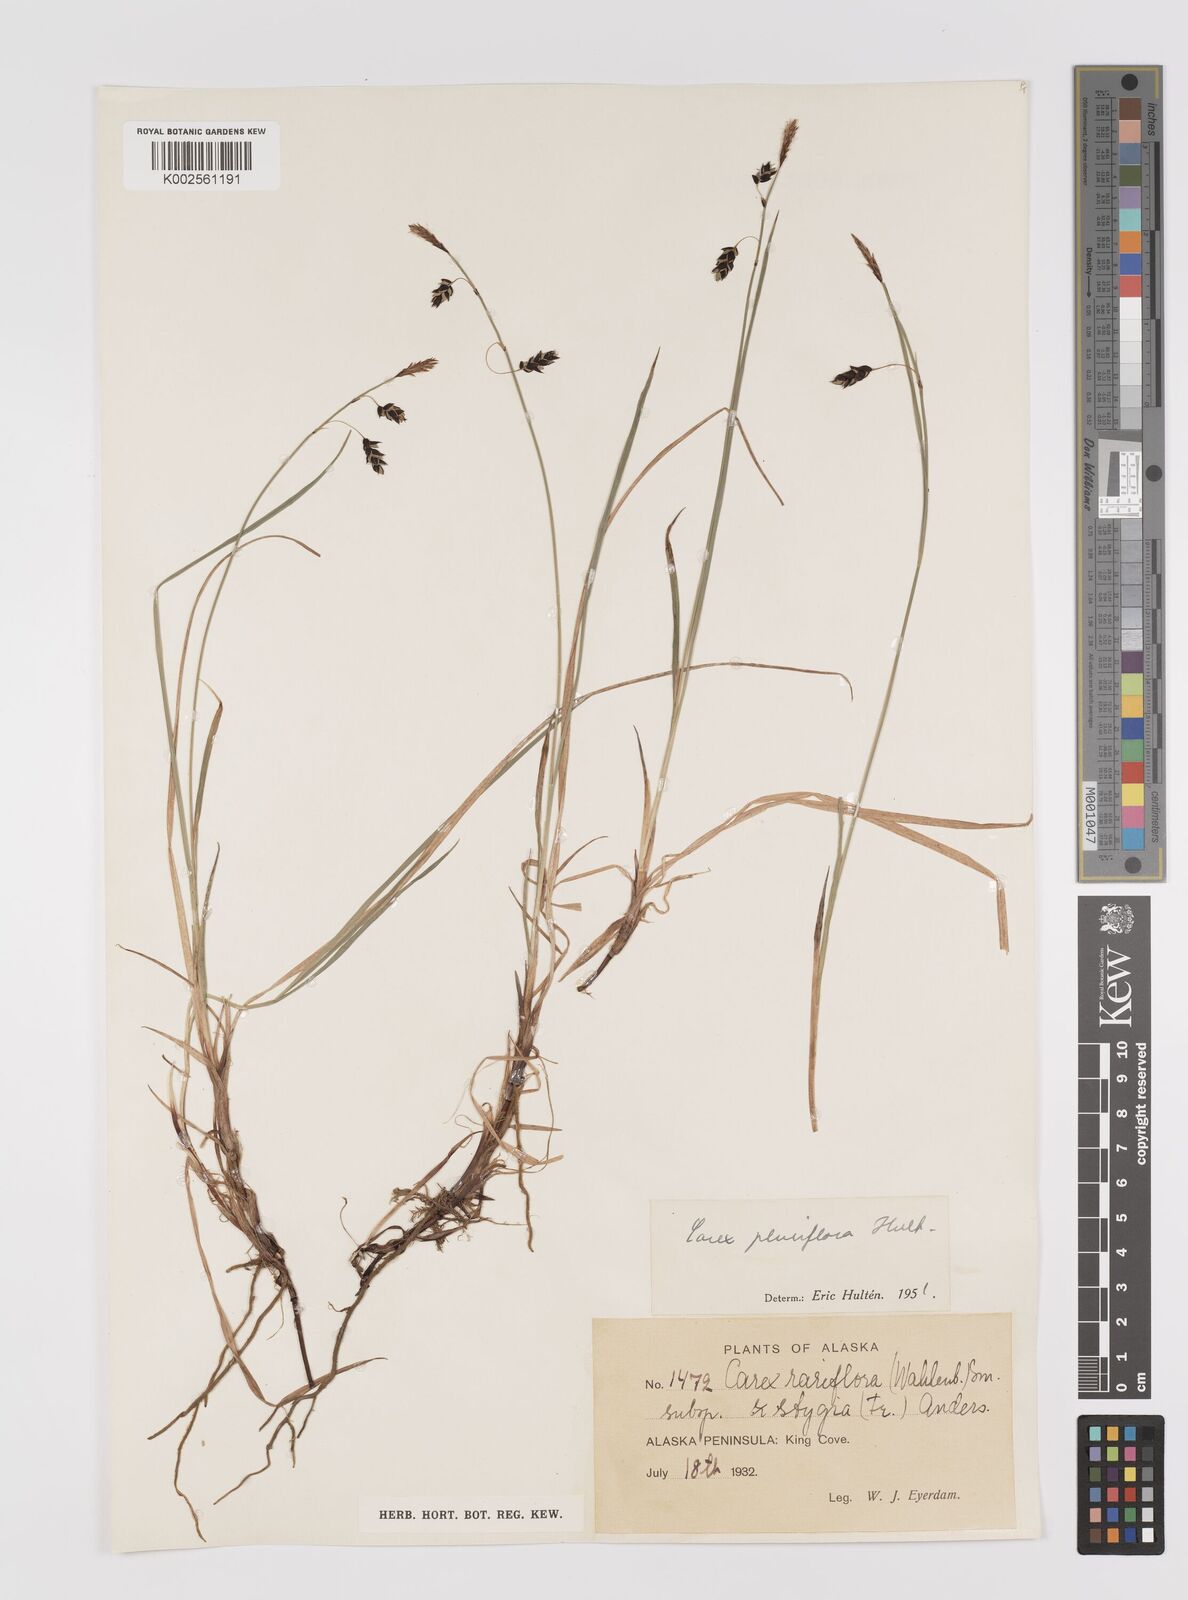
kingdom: Plantae
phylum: Tracheophyta
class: Liliopsida
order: Poales
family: Cyperaceae
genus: Carex
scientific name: Carex pluriflora
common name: Manyflower sedge
